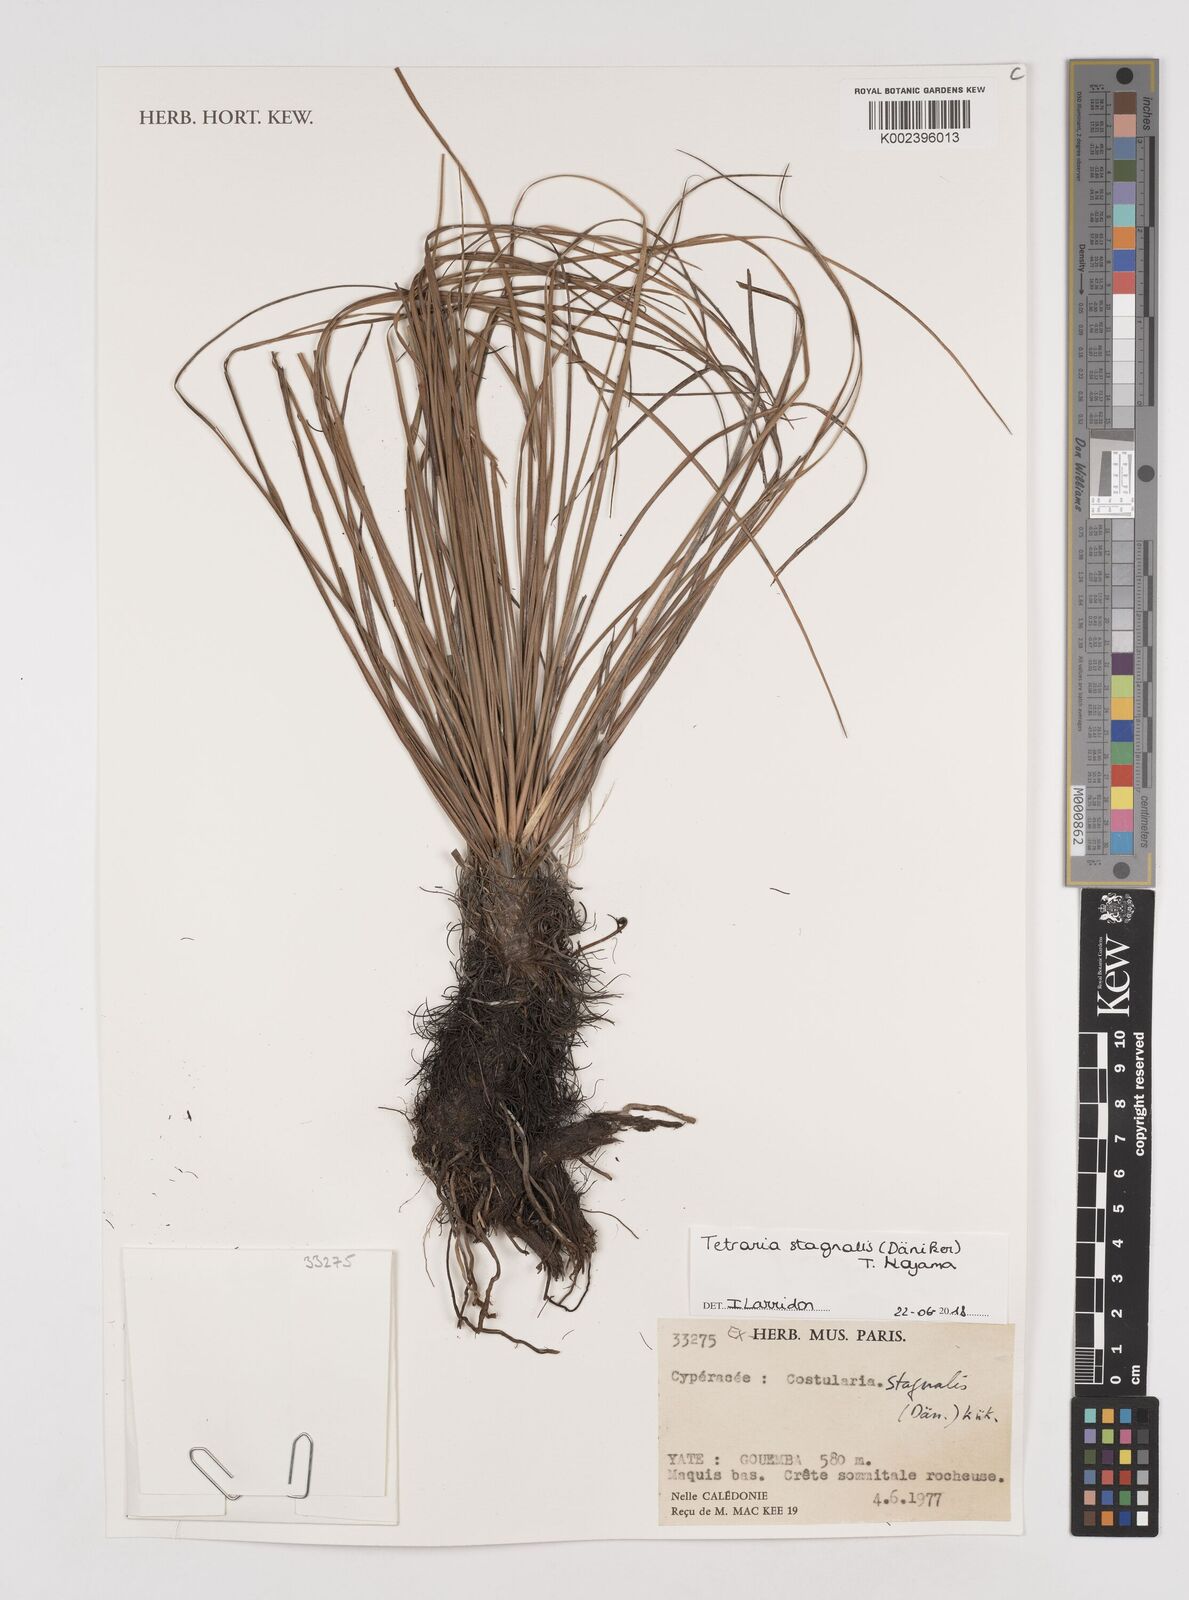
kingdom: Plantae
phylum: Tracheophyta
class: Liliopsida
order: Poales
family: Cyperaceae
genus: Tetraria
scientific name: Tetraria stagnalis
